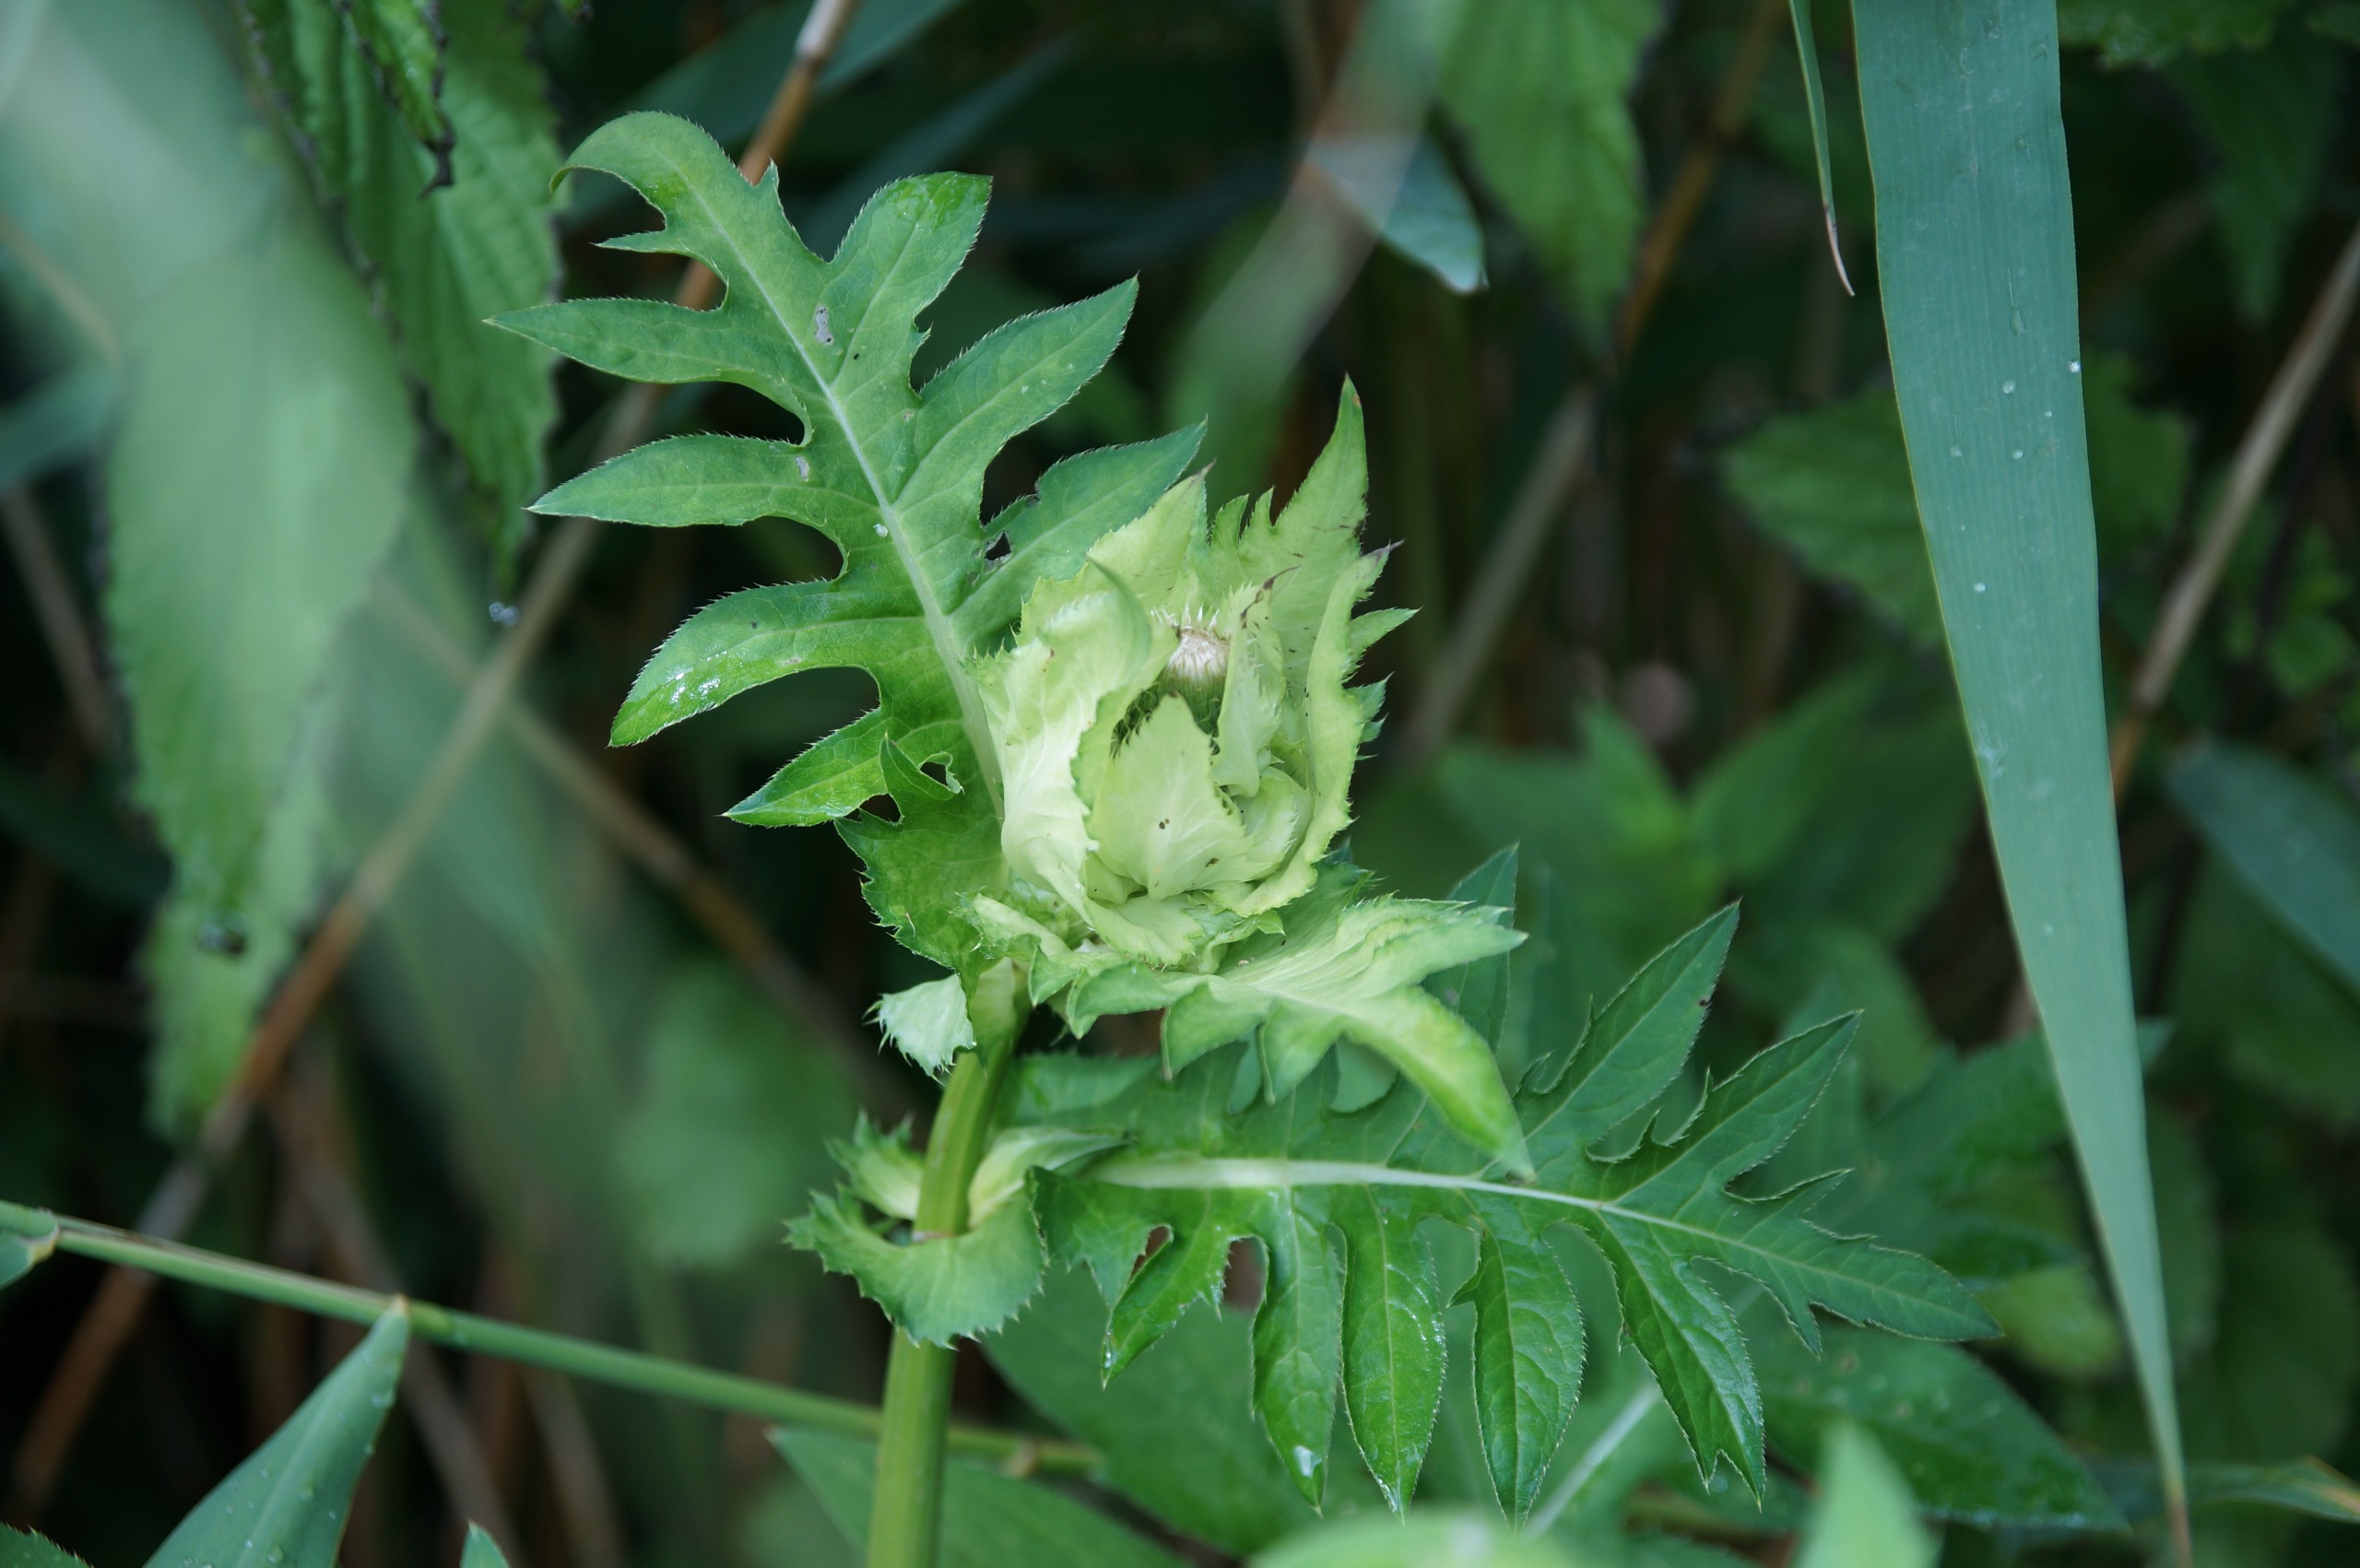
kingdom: Plantae
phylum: Tracheophyta
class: Magnoliopsida
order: Asterales
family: Asteraceae
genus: Cirsium
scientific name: Cirsium oleraceum
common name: Kål-tidsel
